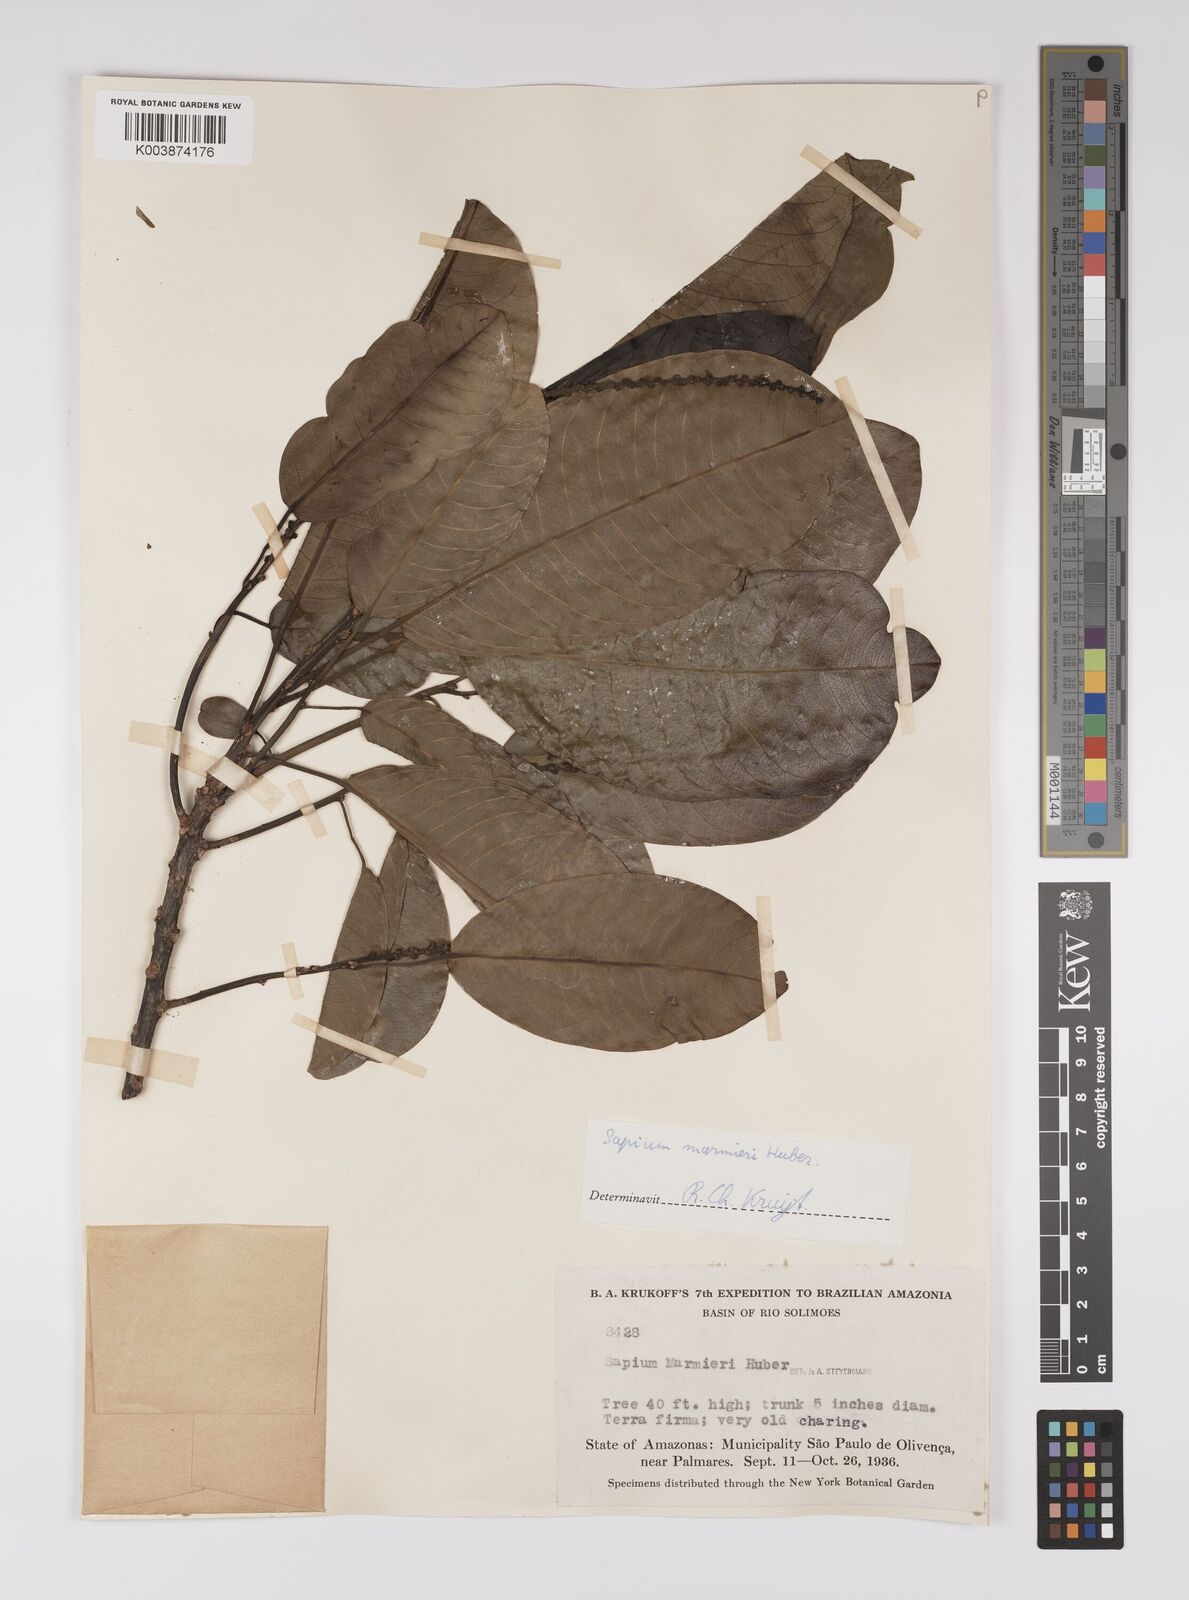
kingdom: Plantae
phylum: Tracheophyta
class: Magnoliopsida
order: Malpighiales
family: Euphorbiaceae
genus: Sapium
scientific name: Sapium marmieri
